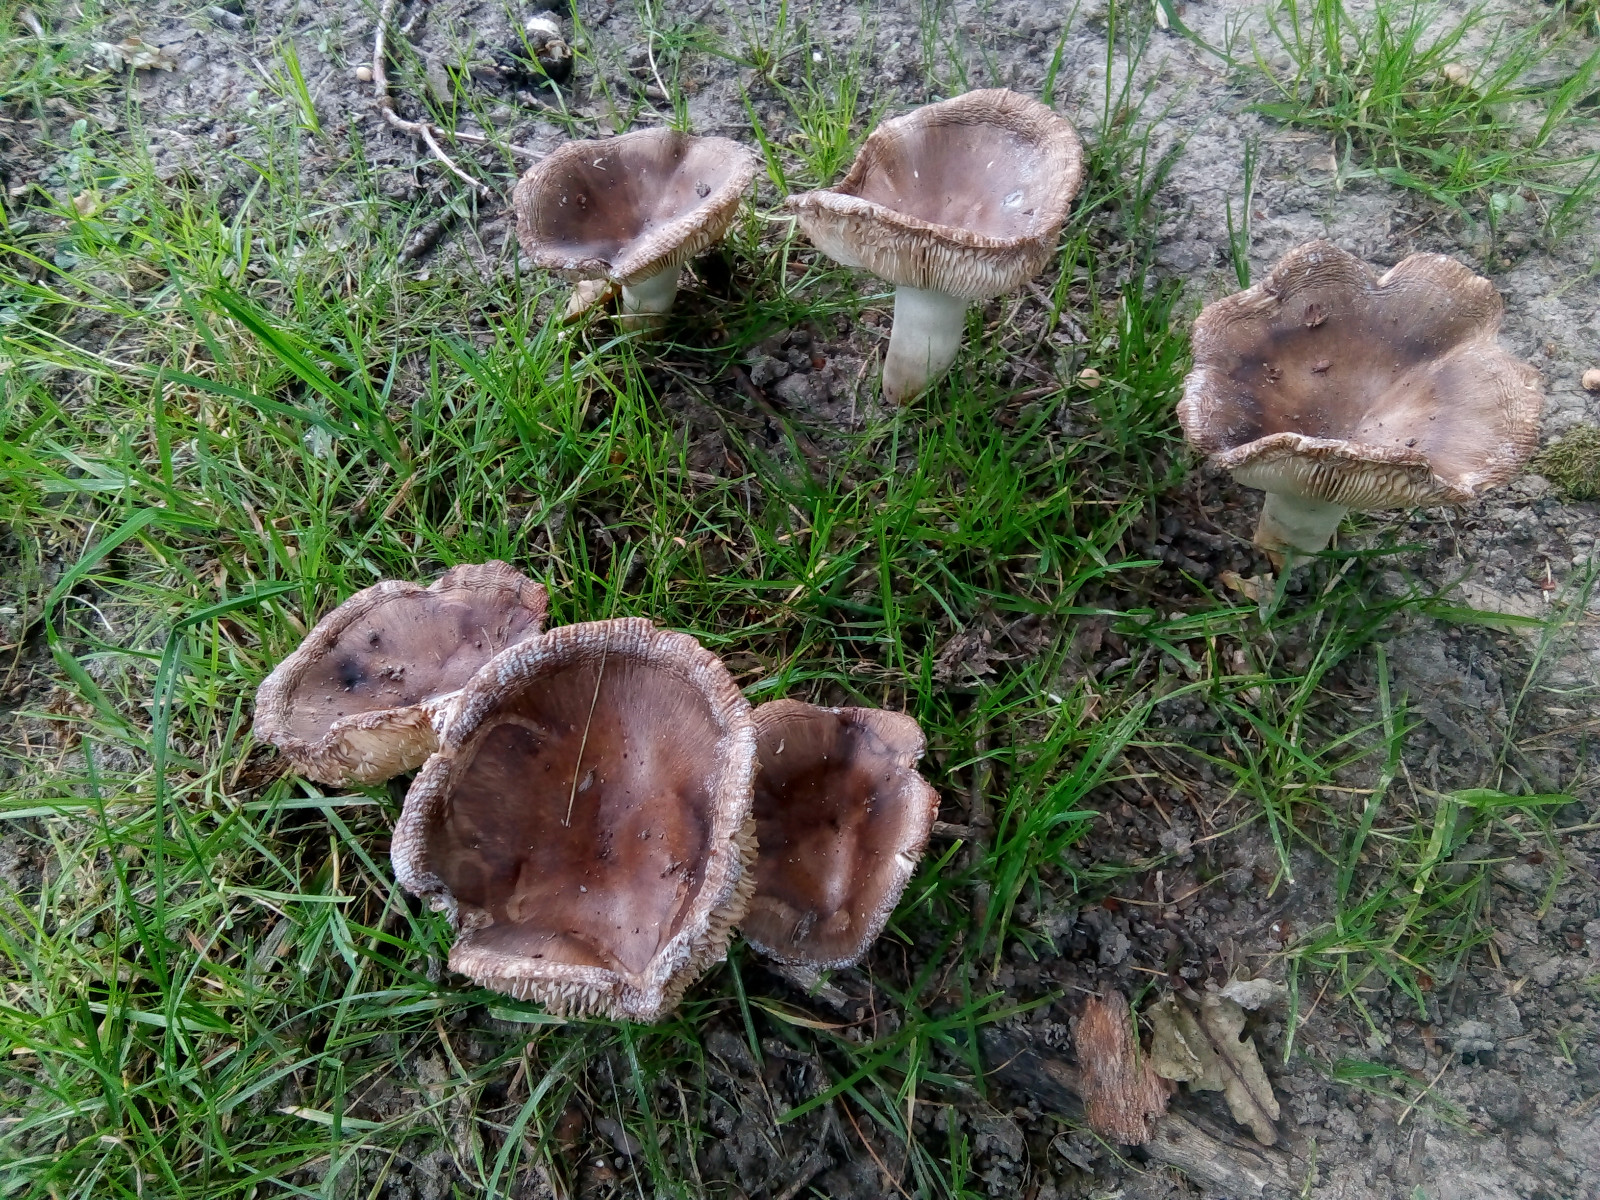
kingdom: Fungi
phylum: Basidiomycota
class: Agaricomycetes
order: Russulales
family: Russulaceae
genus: Russula
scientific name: Russula sororia
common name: brun kam-skørhat
